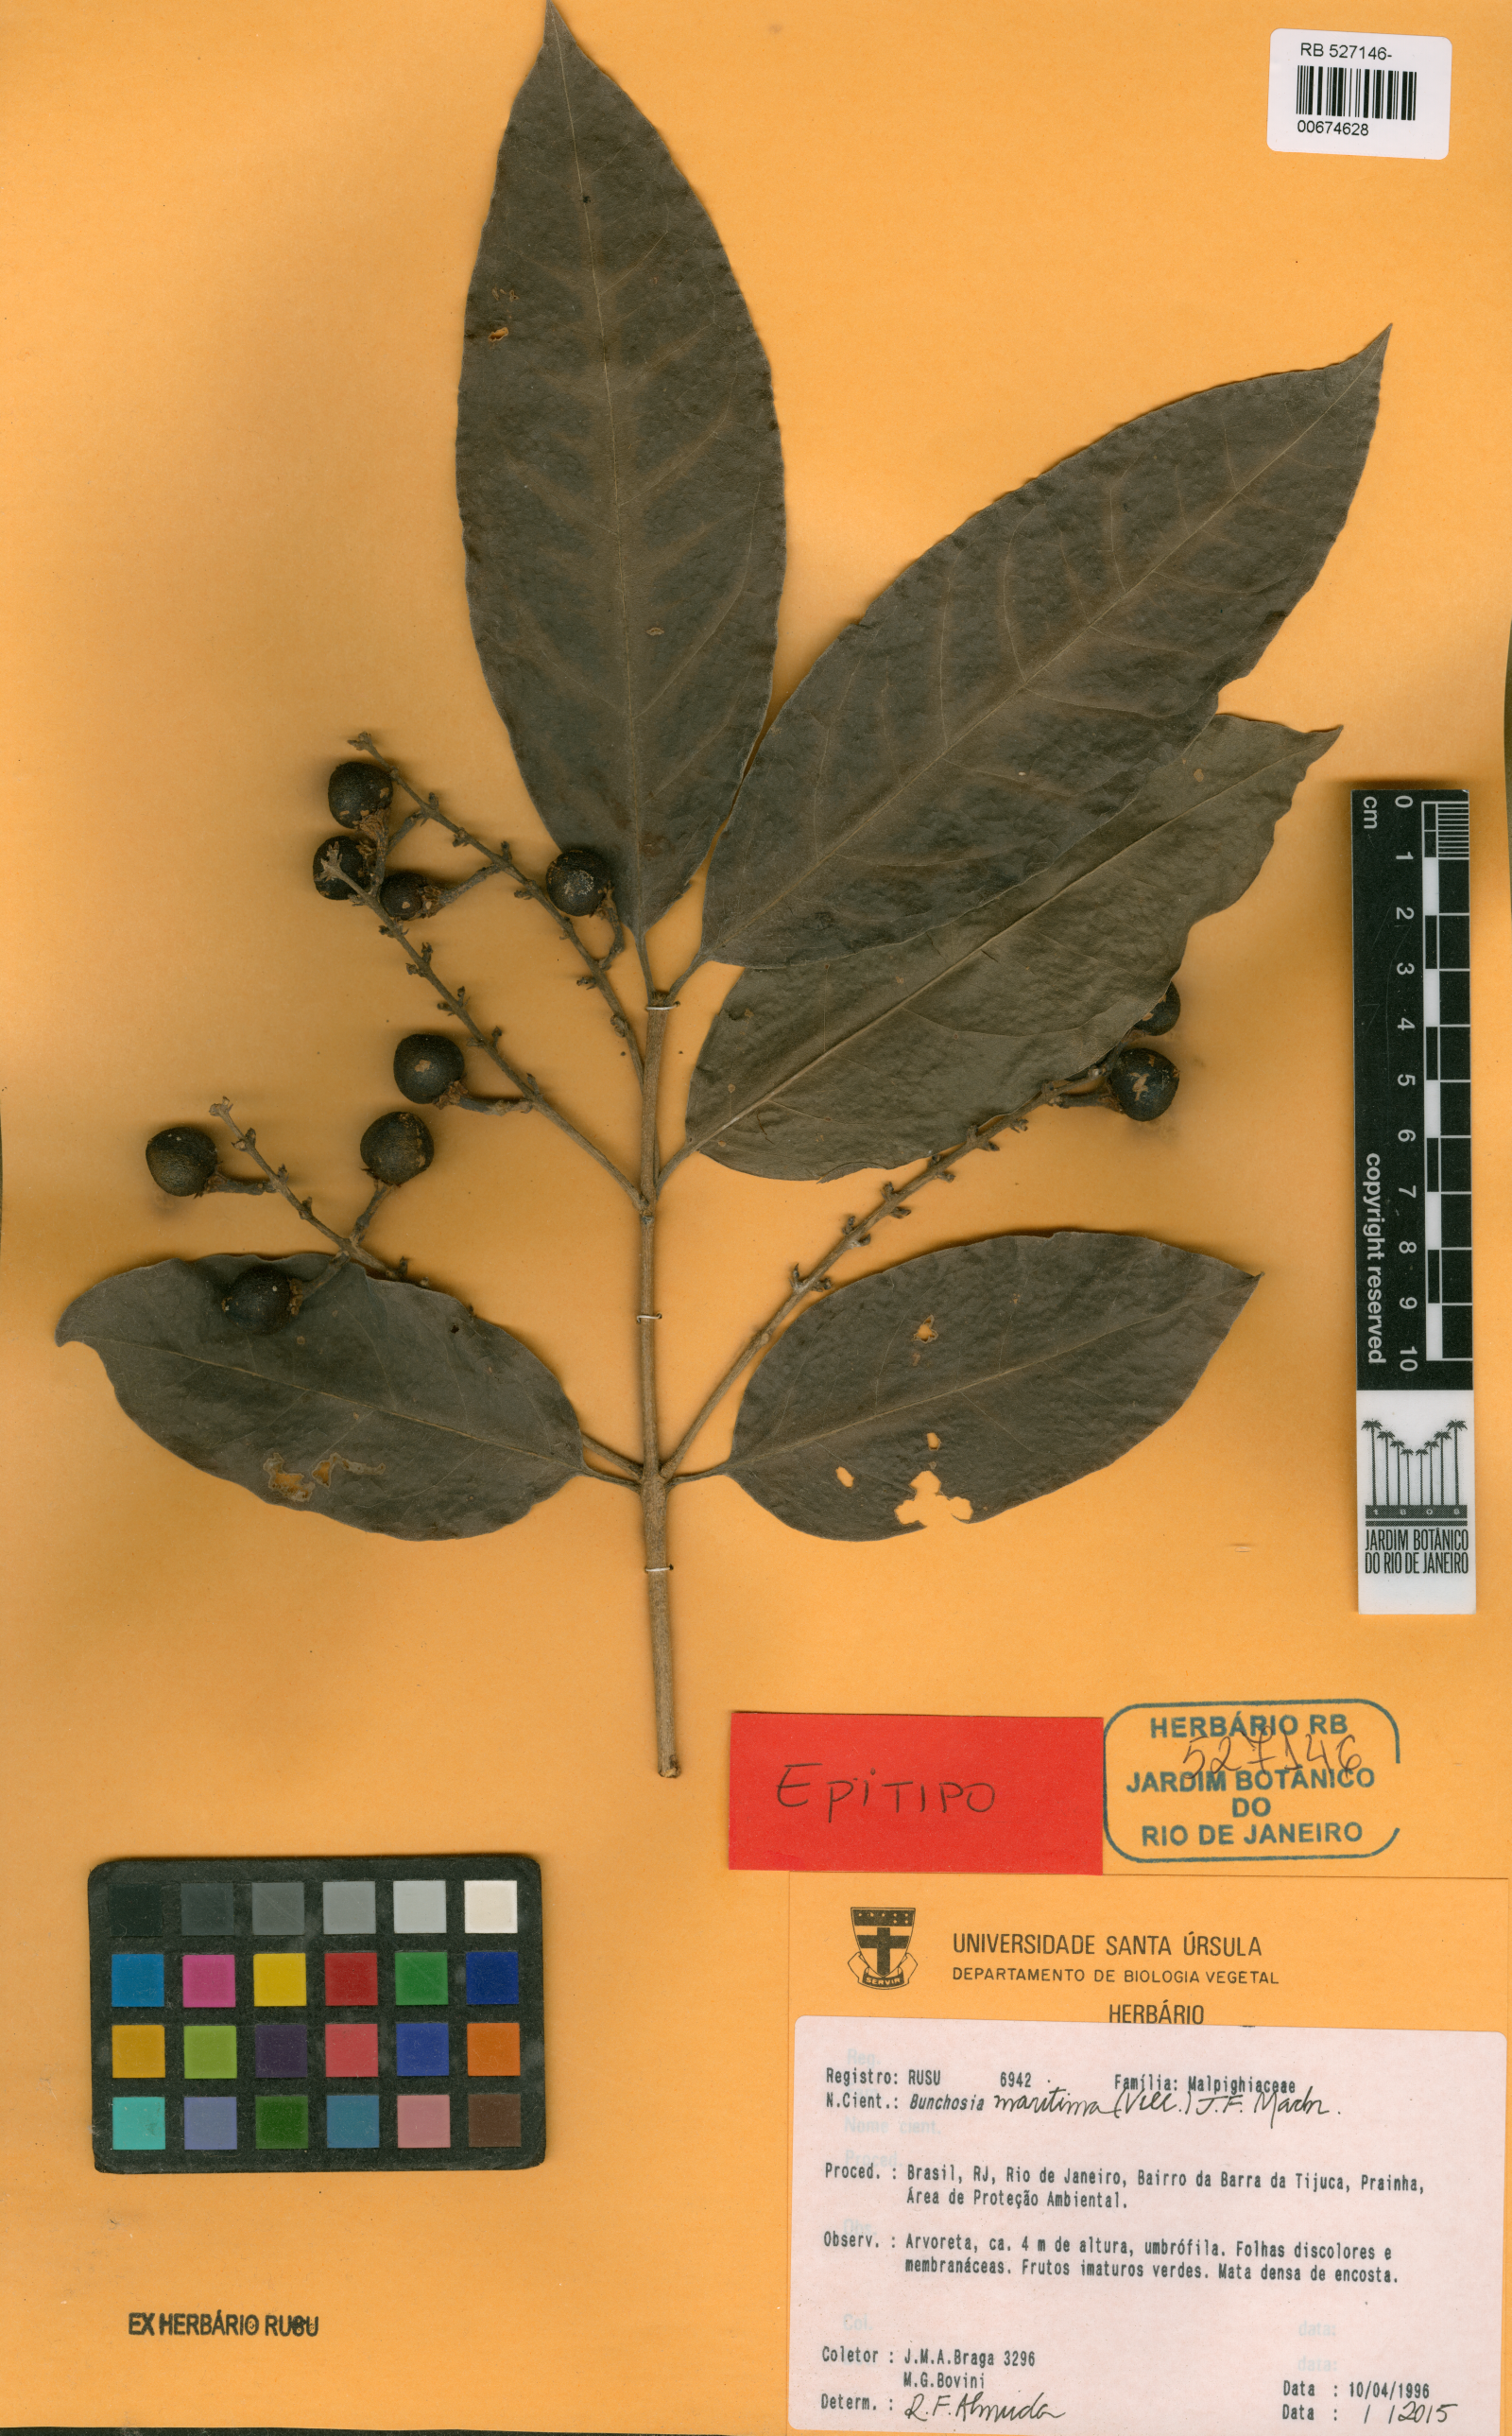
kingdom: Plantae
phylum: Tracheophyta
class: Magnoliopsida
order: Malpighiales
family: Malpighiaceae
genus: Bunchosia
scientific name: Bunchosia maritima
